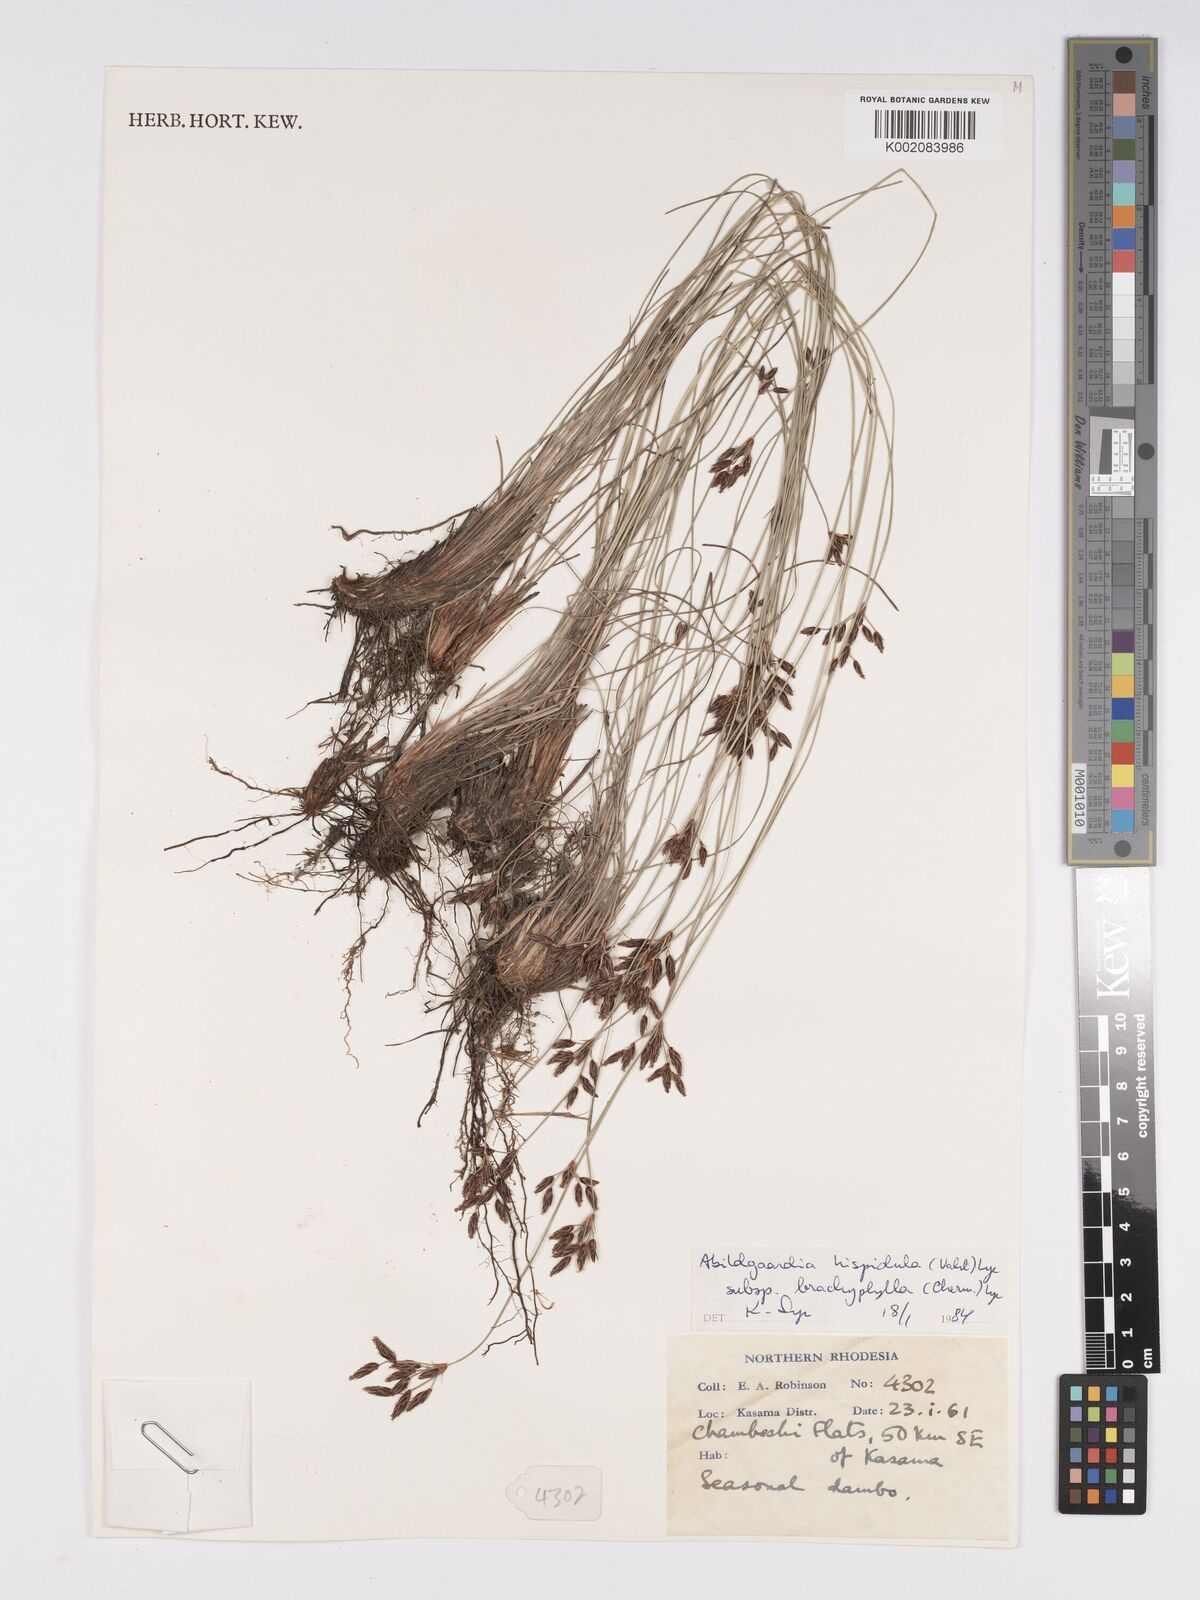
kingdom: Plantae
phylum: Tracheophyta
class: Liliopsida
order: Poales
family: Cyperaceae
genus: Bulbostylis
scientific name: Bulbostylis hispidula
